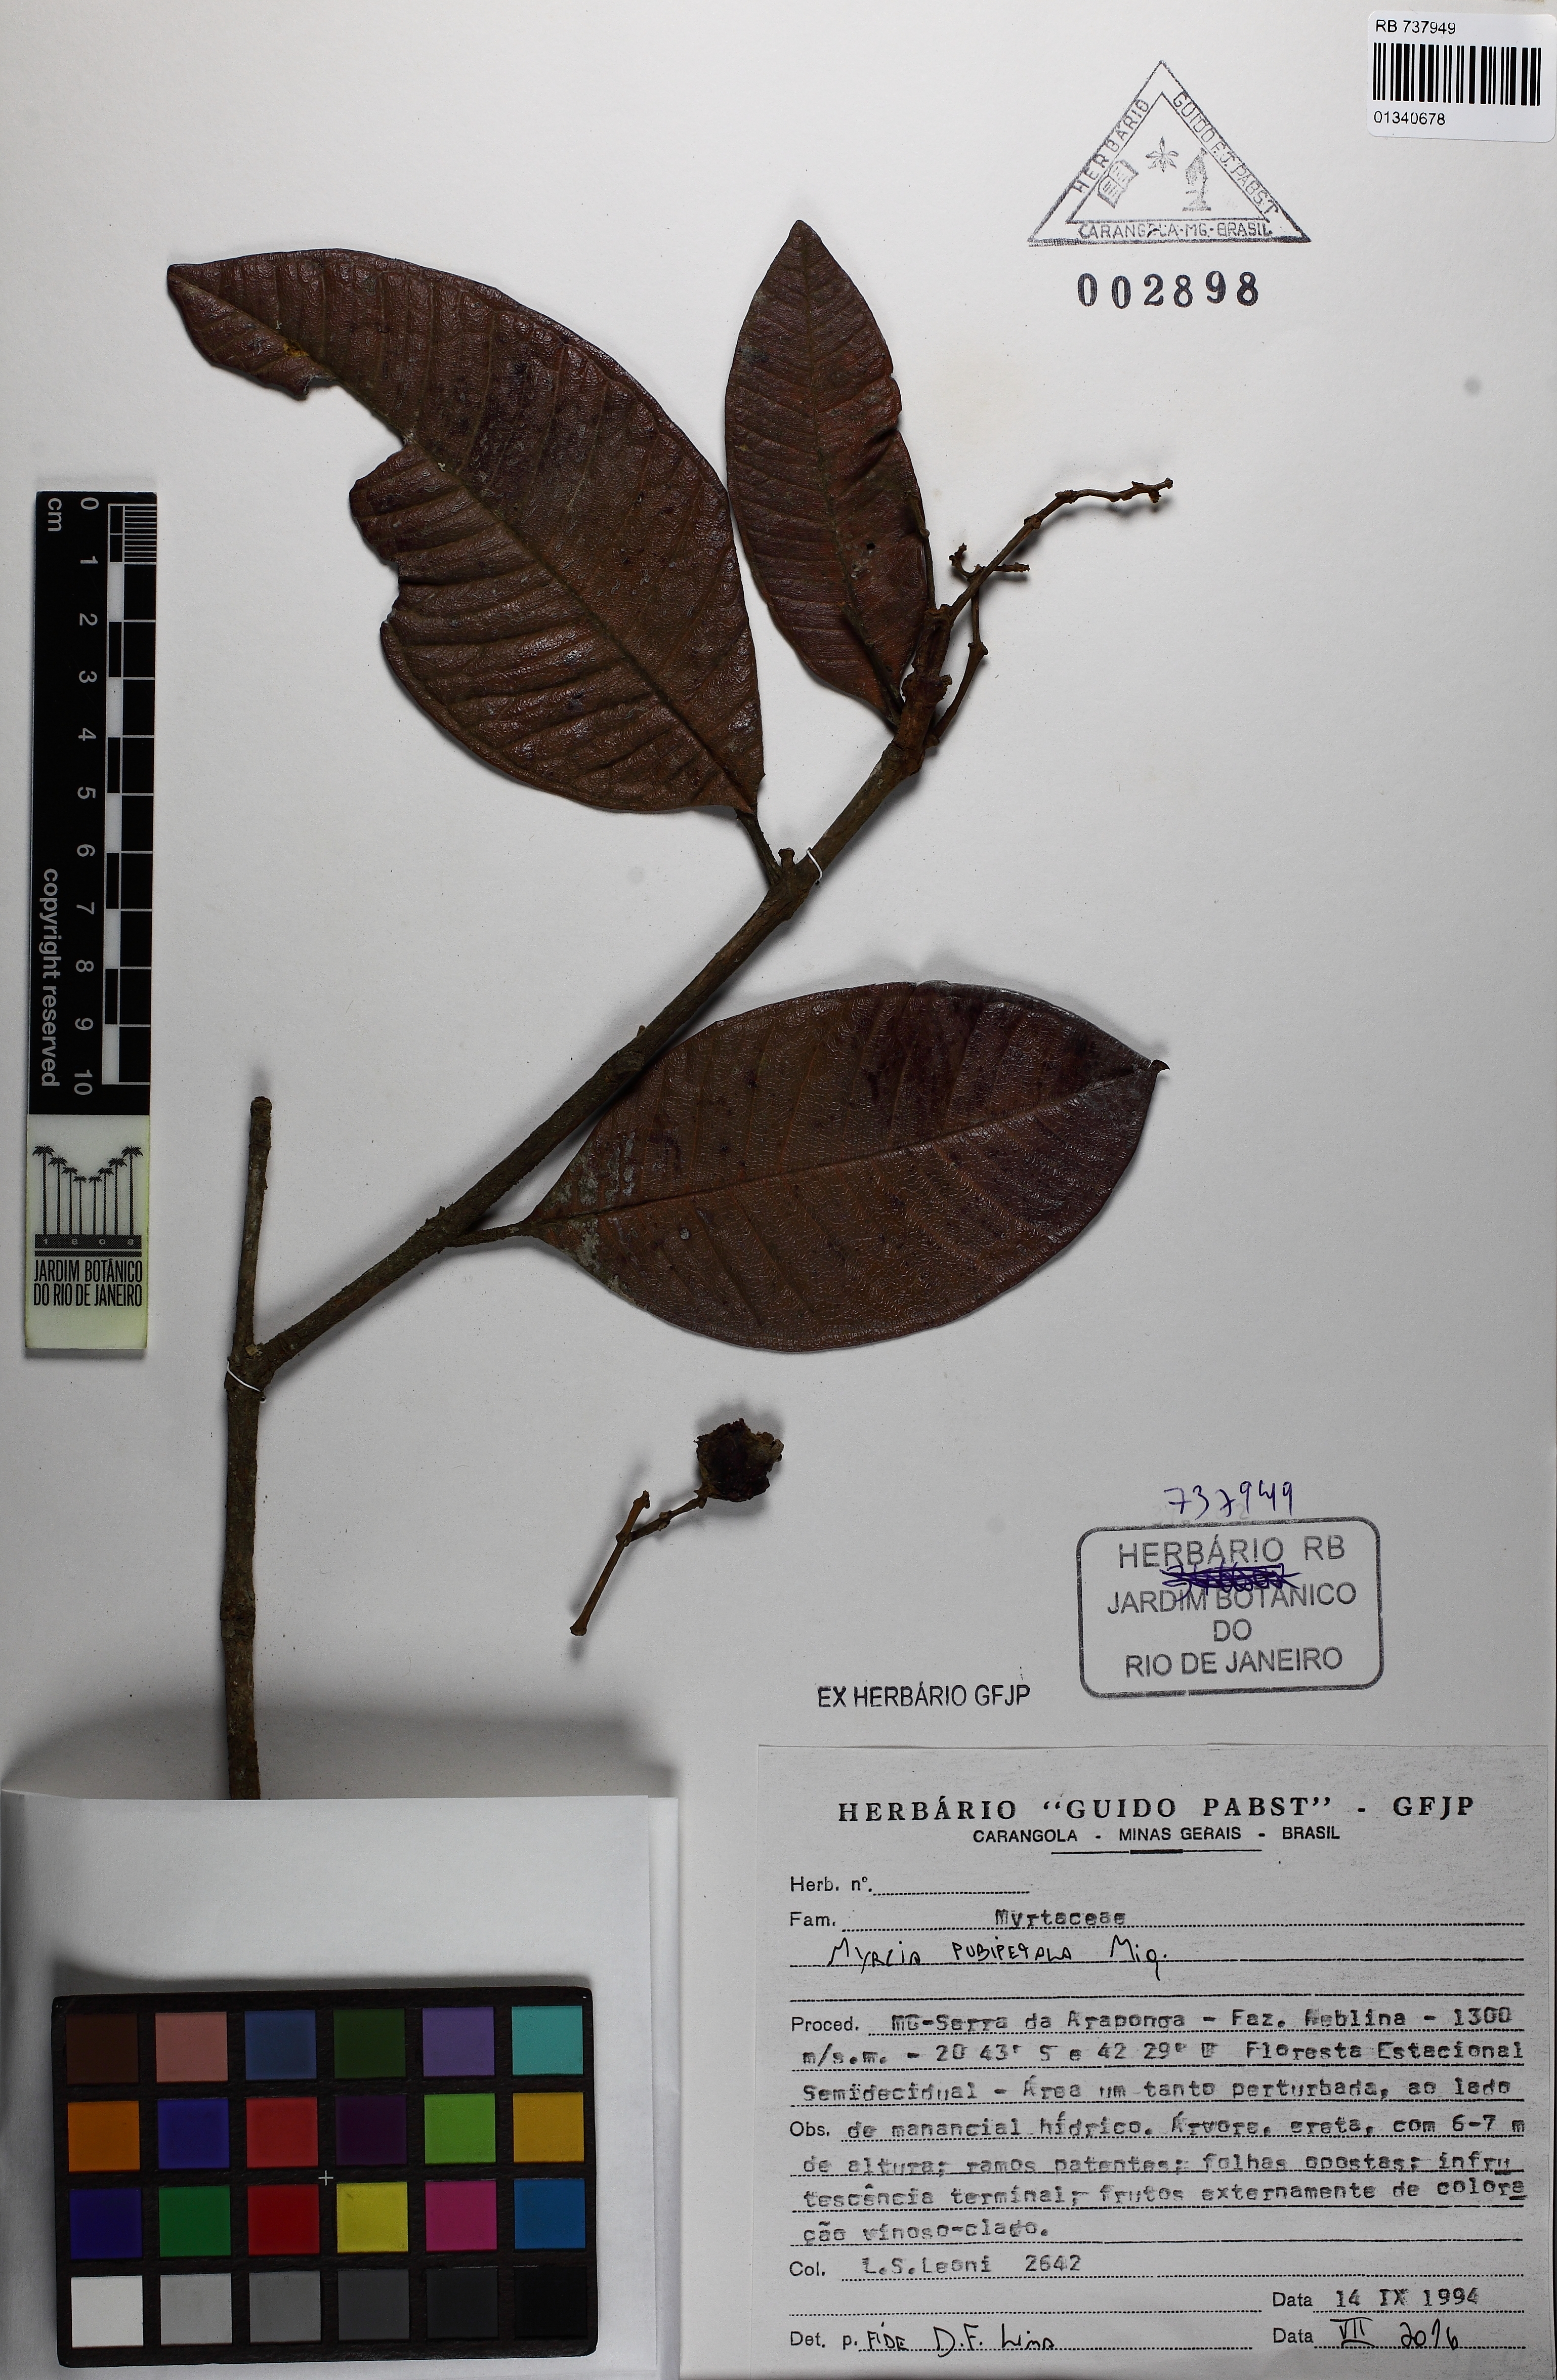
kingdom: Plantae
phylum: Tracheophyta
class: Magnoliopsida
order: Myrtales
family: Myrtaceae
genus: Myrcia
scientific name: Myrcia pubipetala
